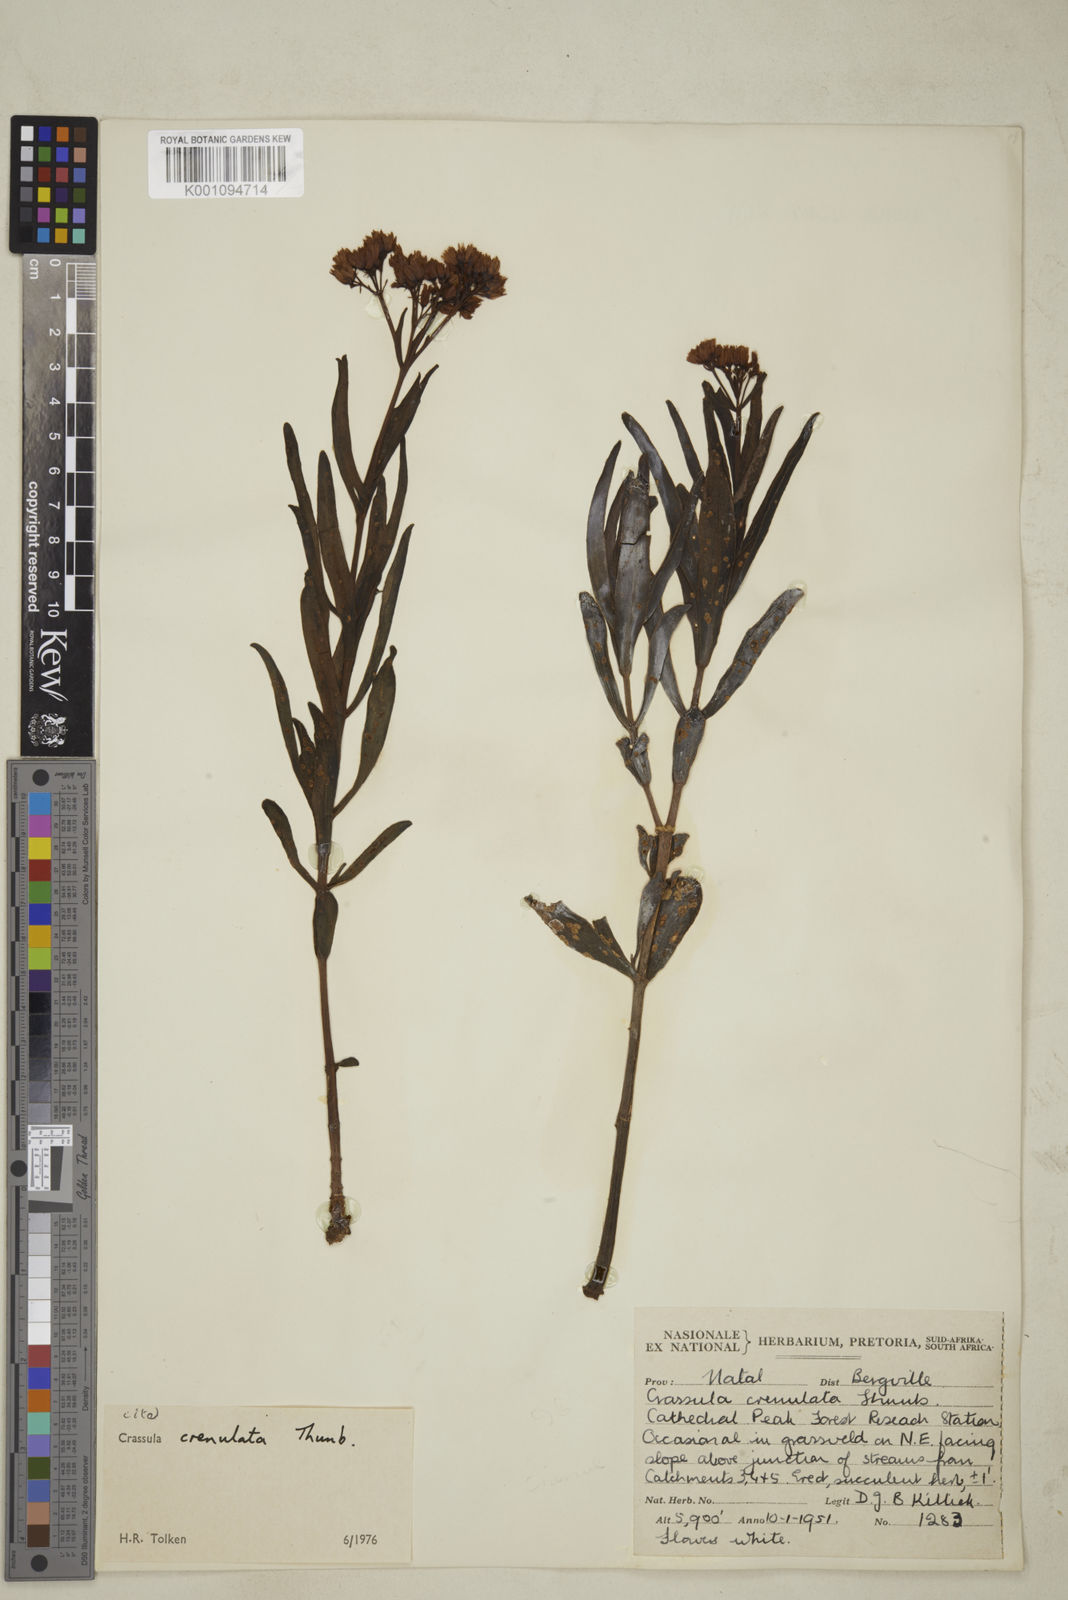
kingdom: Plantae
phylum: Tracheophyta
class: Magnoliopsida
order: Saxifragales
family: Crassulaceae
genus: Crassula
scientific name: Crassula crenulata
